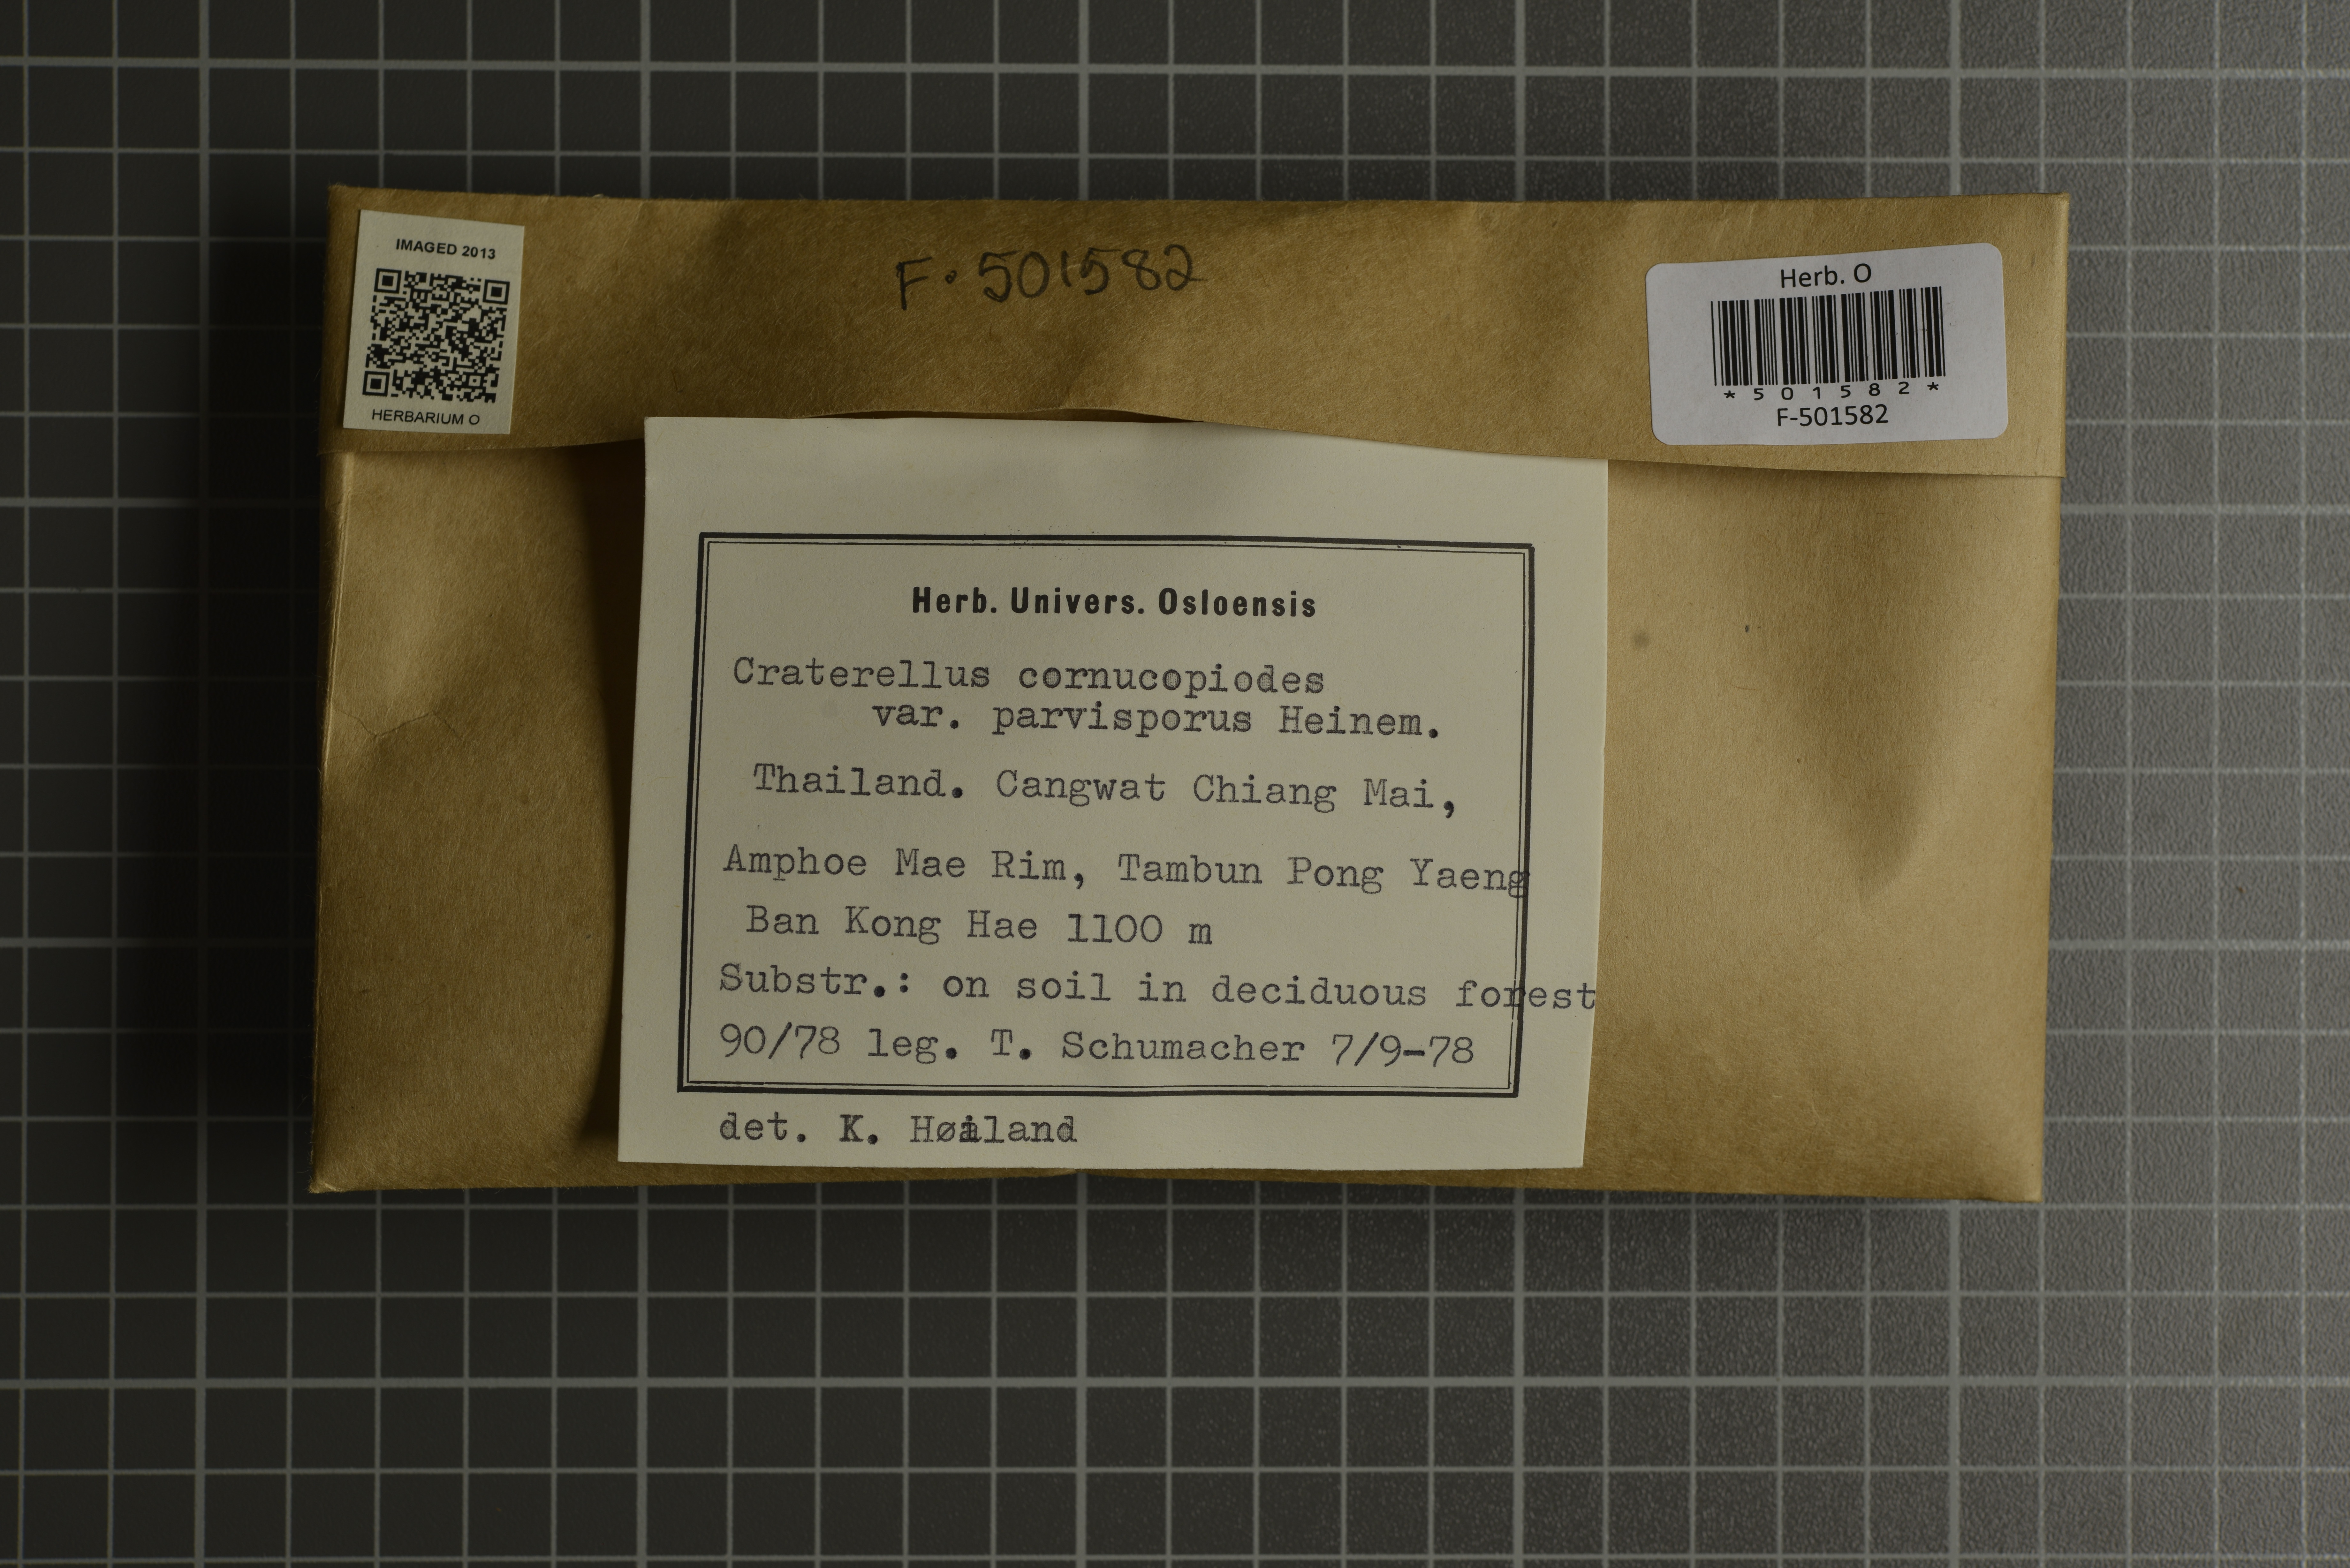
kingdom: Fungi
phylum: Basidiomycota
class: Agaricomycetes
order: Cantharellales
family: Hydnaceae
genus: Craterellus
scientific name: Craterellus cornucopioides
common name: Horn of plenty
